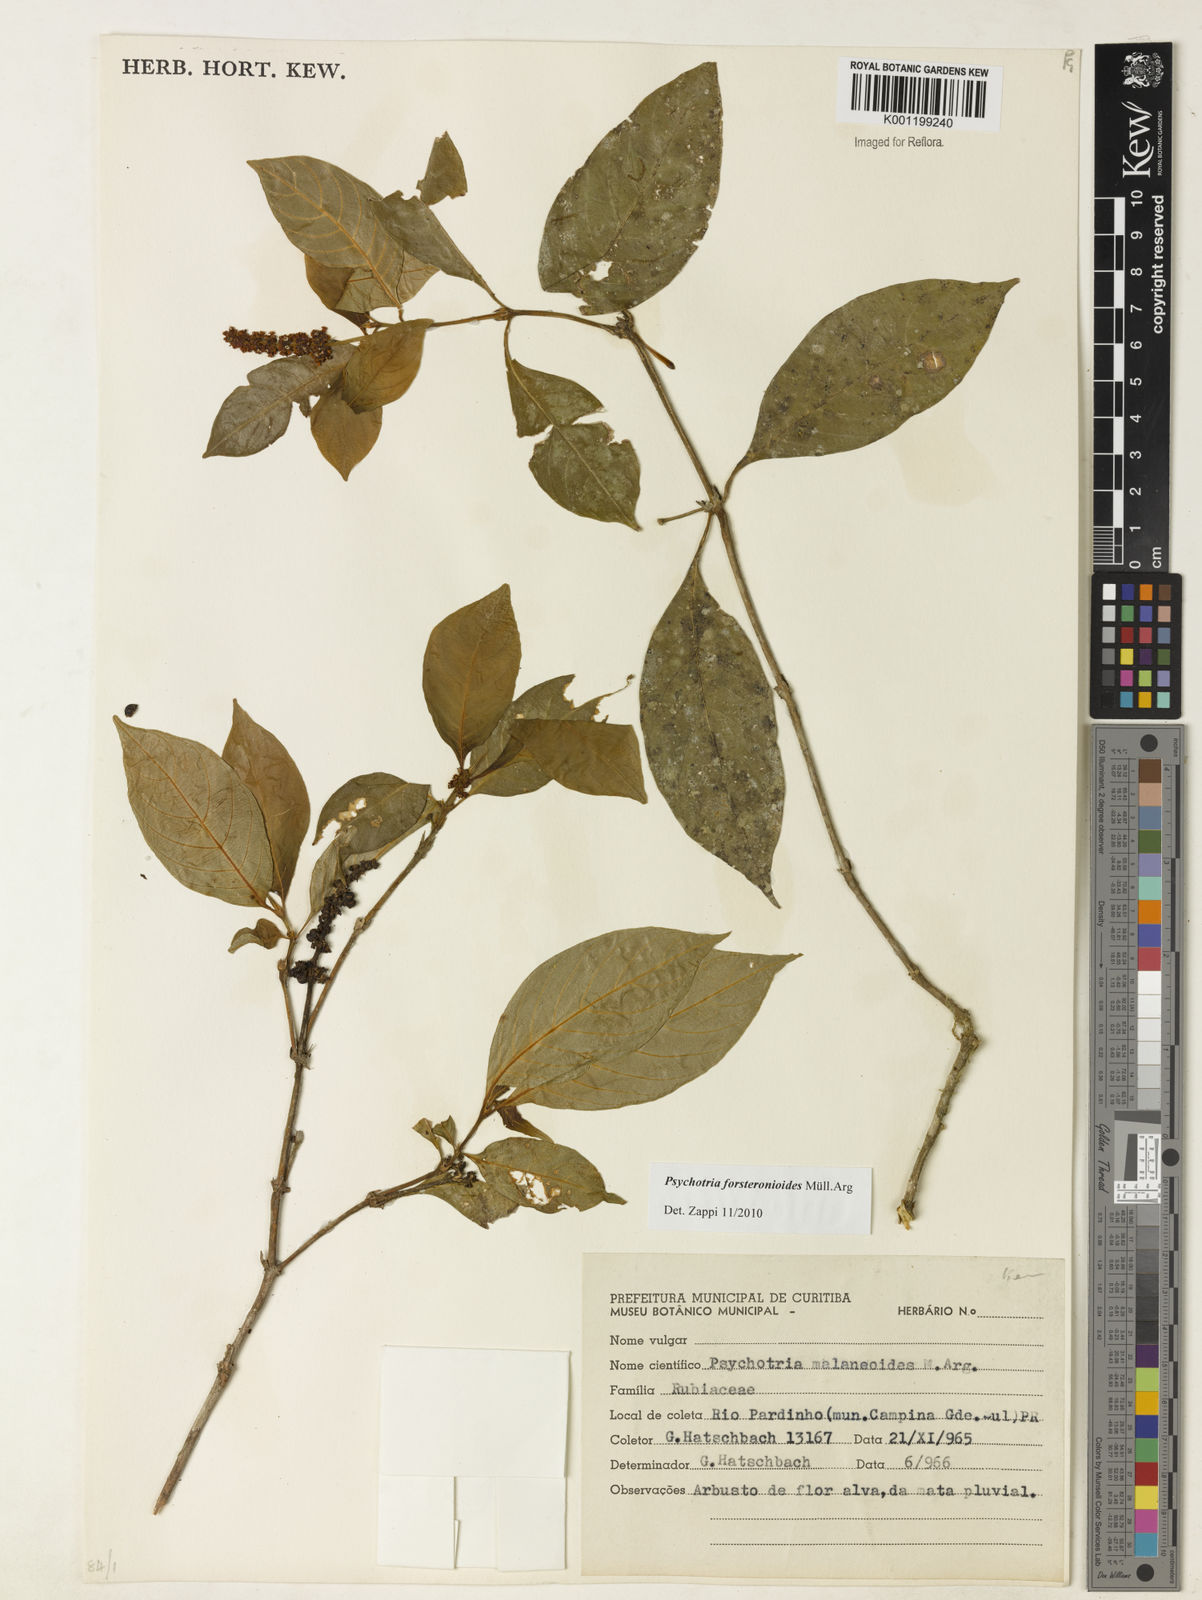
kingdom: Plantae
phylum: Tracheophyta
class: Magnoliopsida
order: Gentianales
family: Rubiaceae
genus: Psychotria
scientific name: Psychotria
